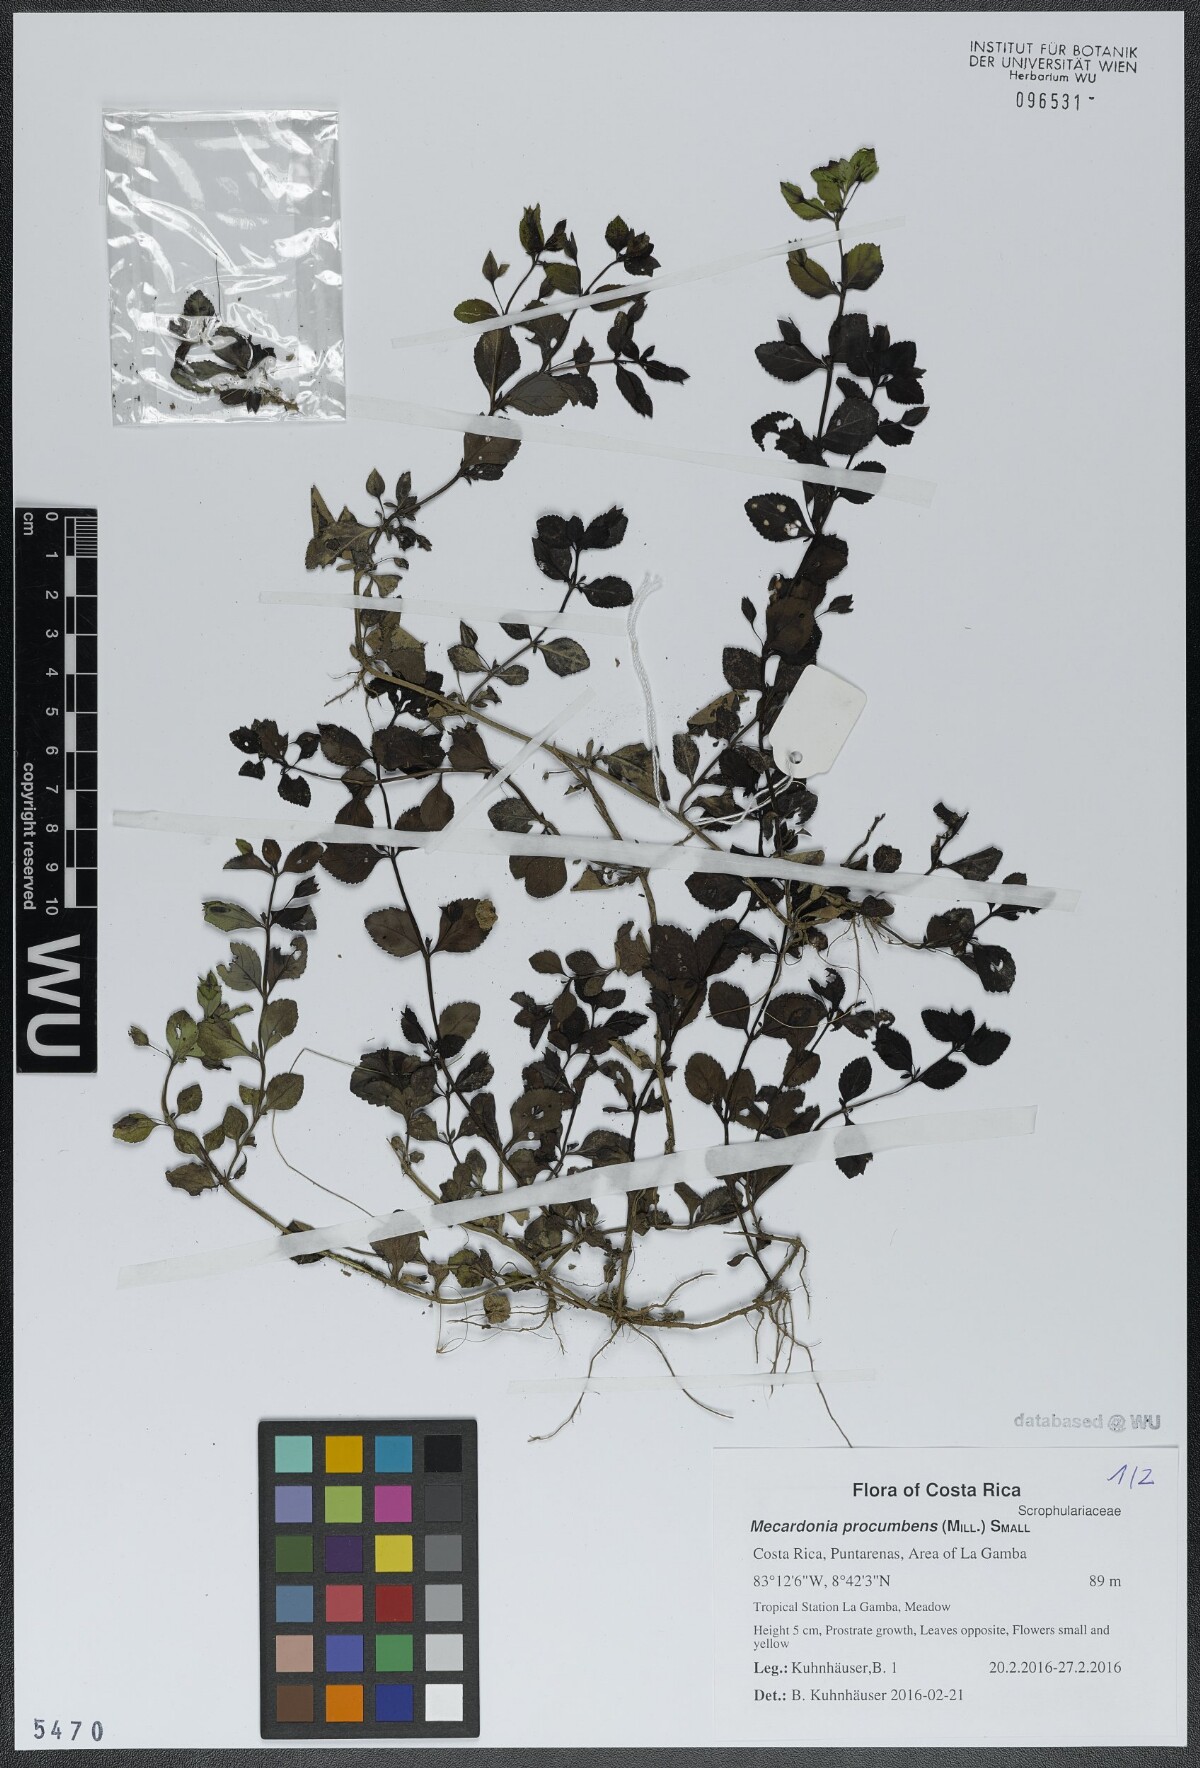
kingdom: Plantae
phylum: Tracheophyta
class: Magnoliopsida
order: Lamiales
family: Plantaginaceae
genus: Mecardonia
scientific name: Mecardonia procumbens
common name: Baby jump-up
